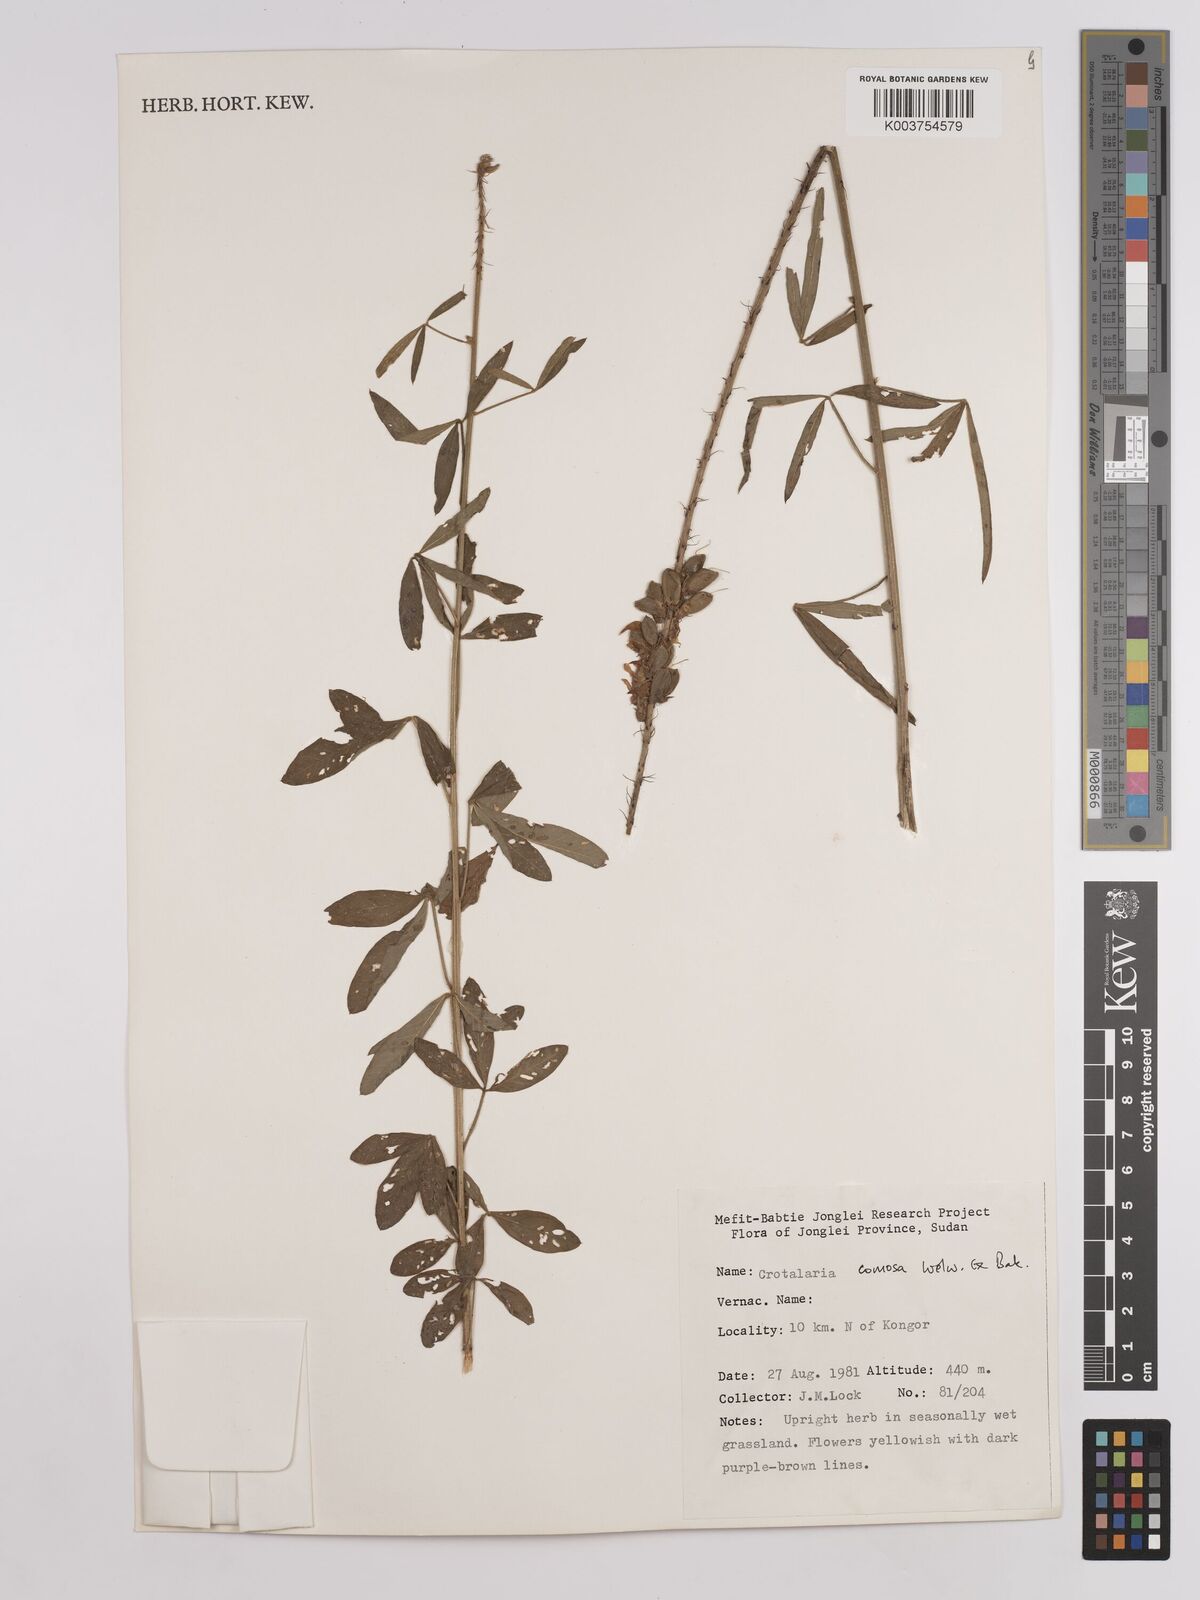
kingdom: Plantae
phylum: Tracheophyta
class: Magnoliopsida
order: Fabales
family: Fabaceae
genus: Crotalaria
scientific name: Crotalaria comosa
